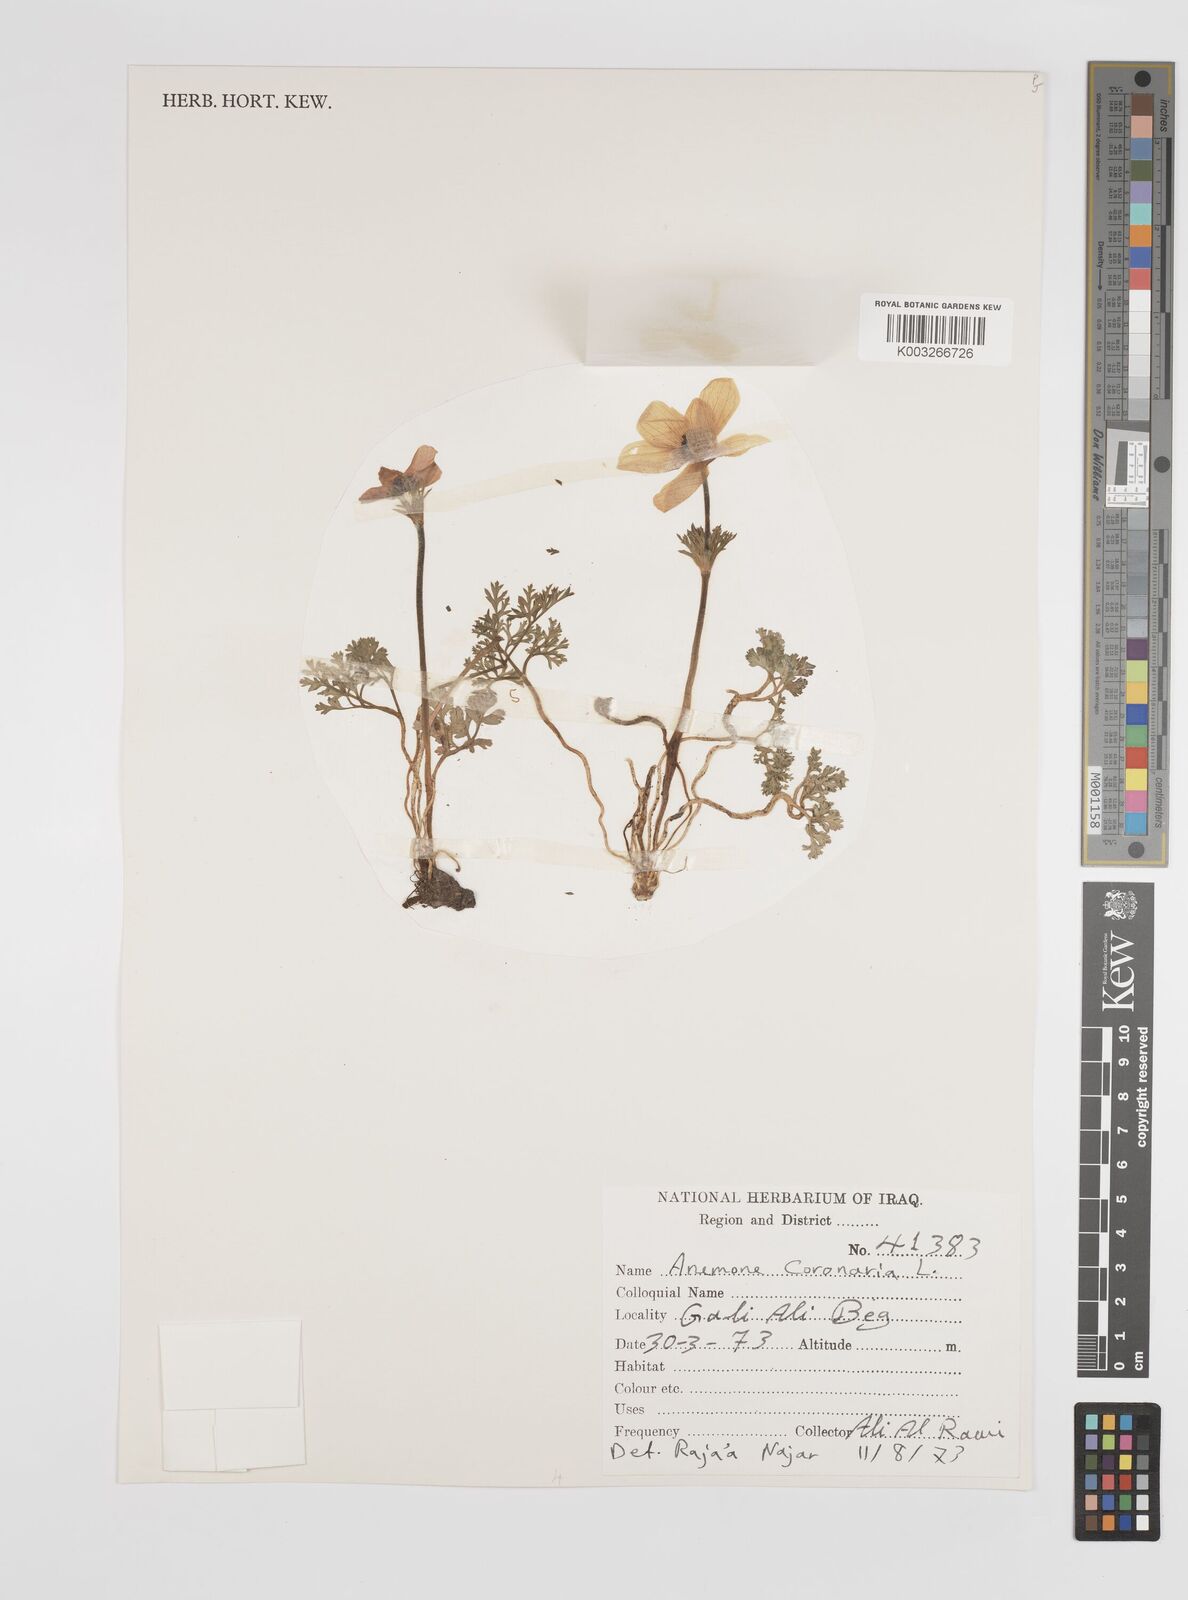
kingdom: Plantae
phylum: Tracheophyta
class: Magnoliopsida
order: Ranunculales
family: Ranunculaceae
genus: Anemone
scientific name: Anemone coronaria
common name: Poppy anemone
